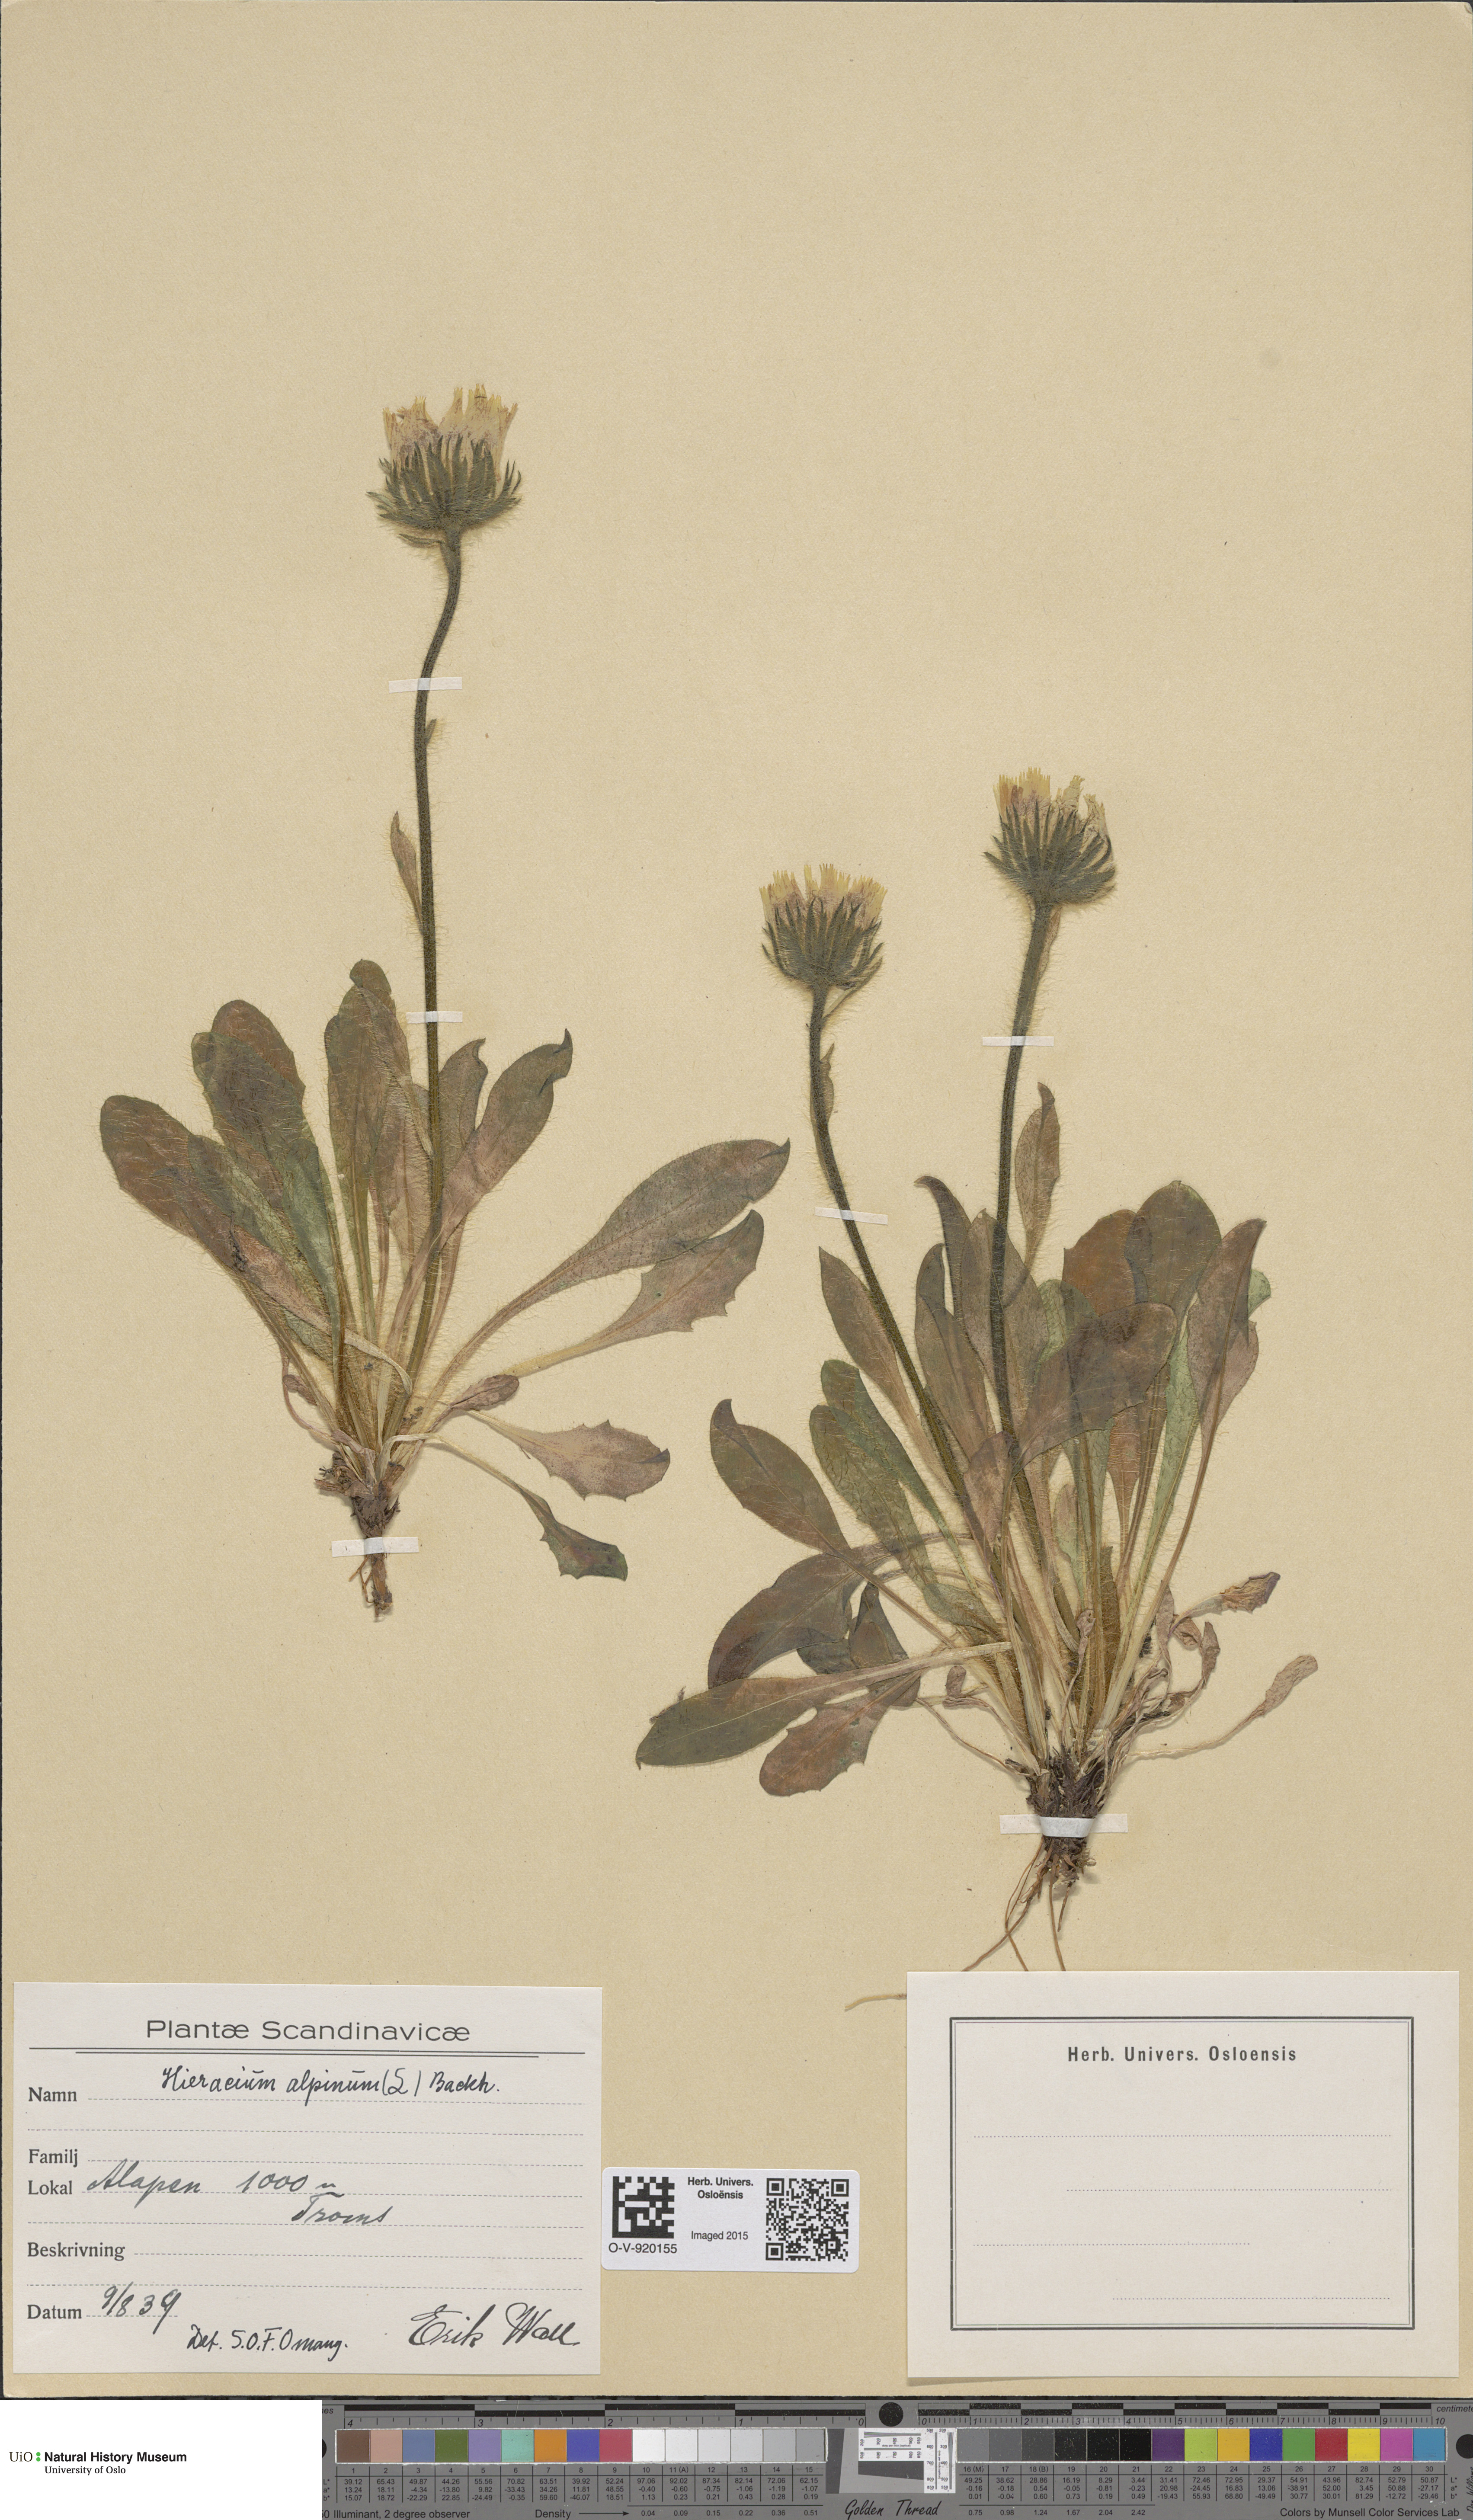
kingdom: Plantae
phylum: Tracheophyta
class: Magnoliopsida
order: Asterales
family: Asteraceae
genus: Hieracium
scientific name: Hieracium alpinum
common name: Alpine hawkweed
